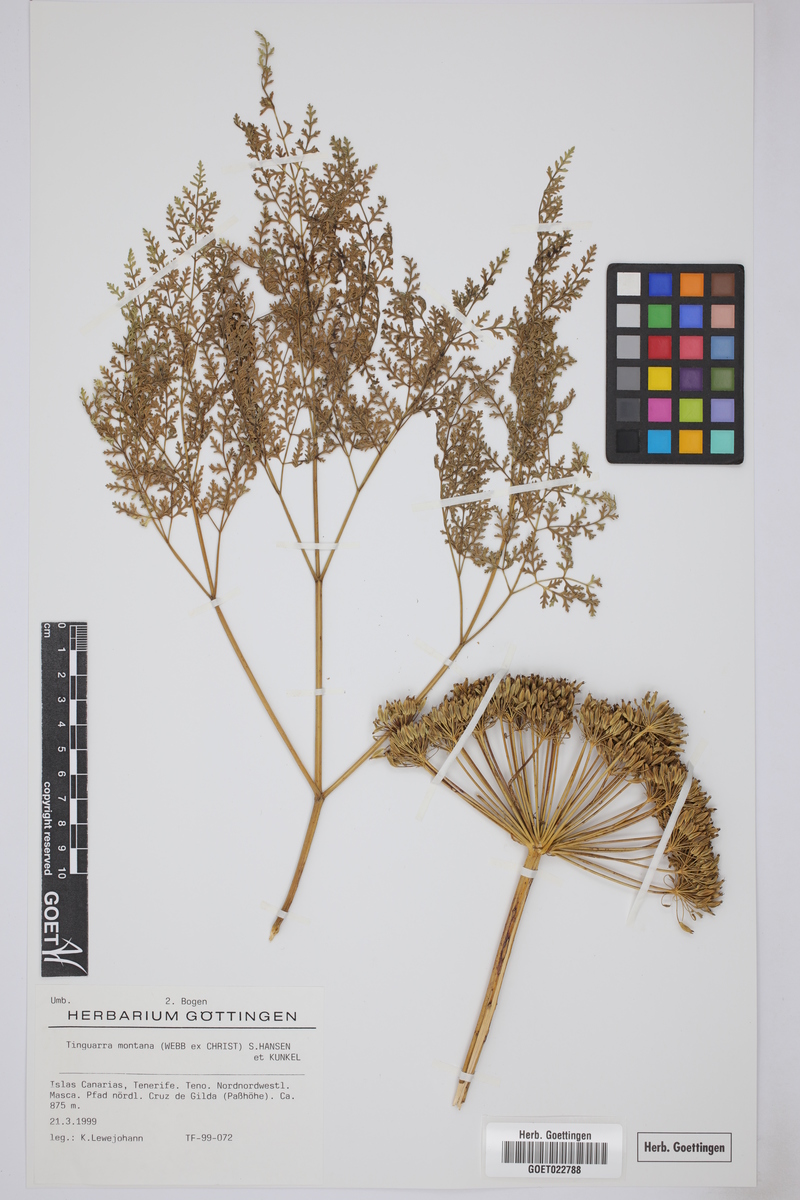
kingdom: Plantae
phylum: Tracheophyta
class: Magnoliopsida
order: Apiales
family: Apiaceae
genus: Athamanta
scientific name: Athamanta montana
